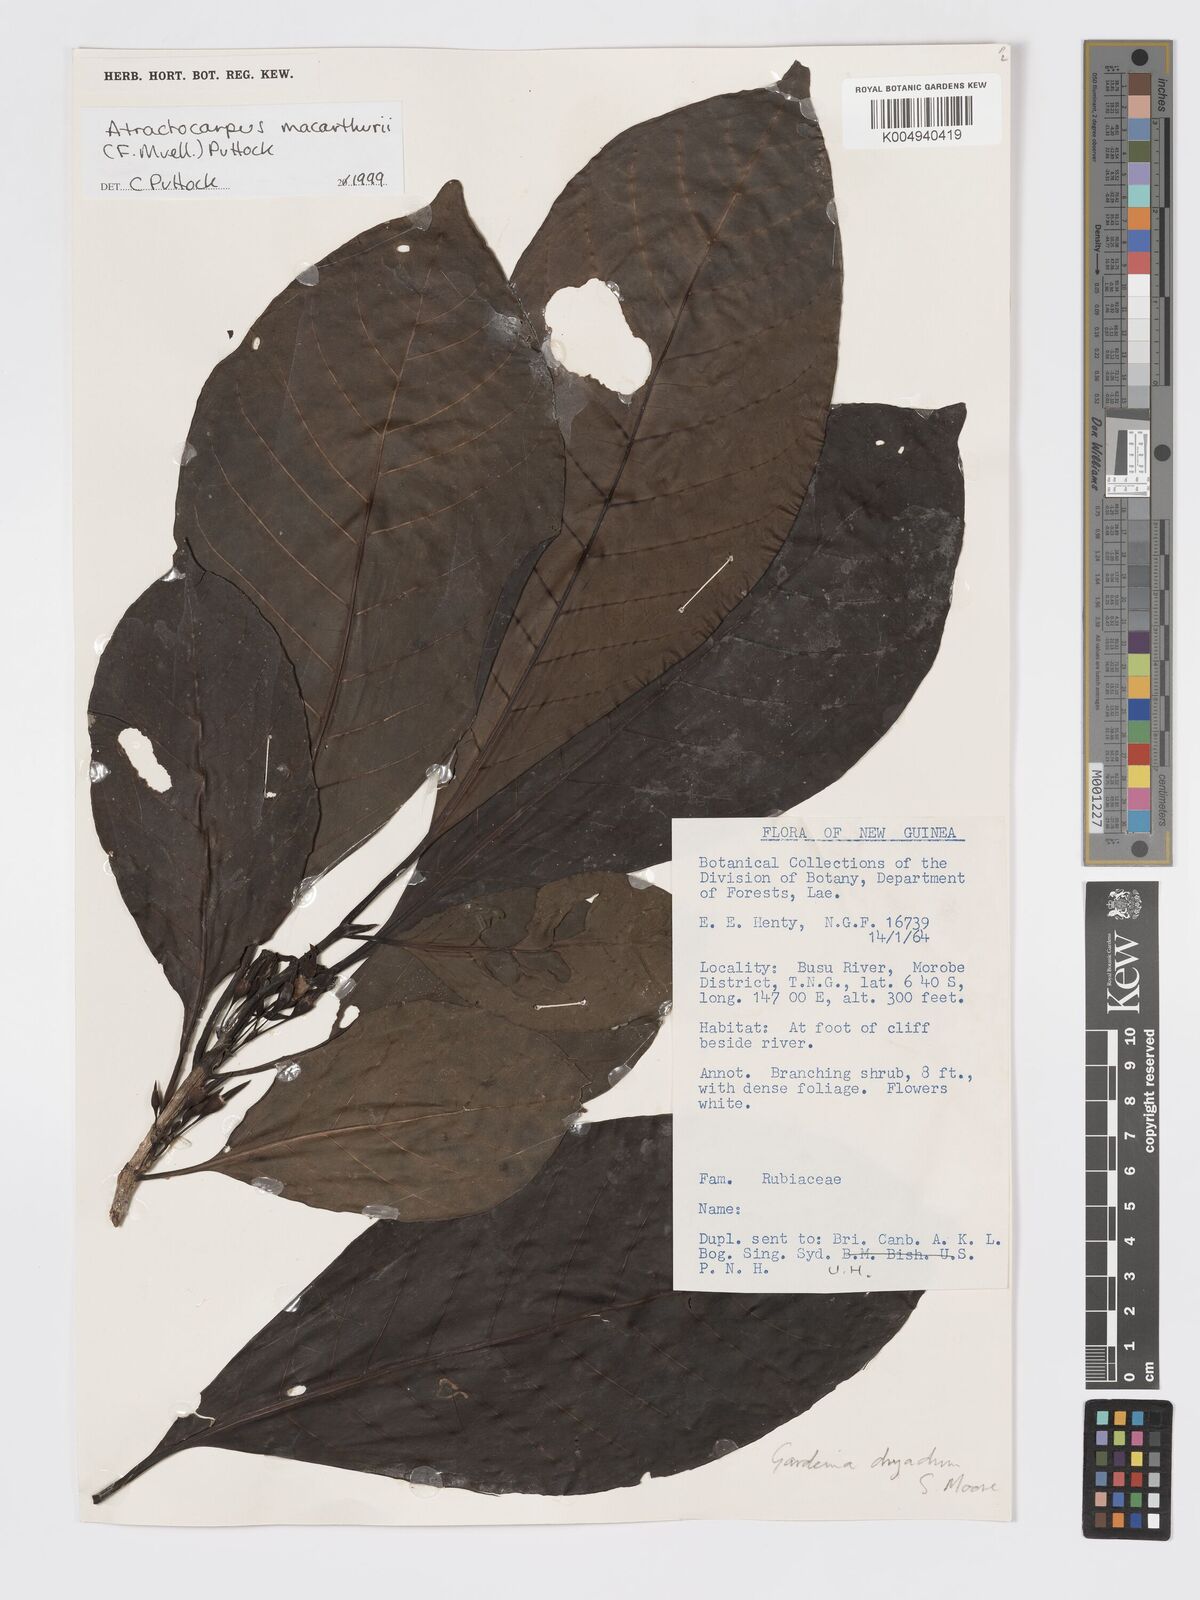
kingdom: Plantae
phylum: Tracheophyta
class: Magnoliopsida
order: Gentianales
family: Rubiaceae
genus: Atractocarpus
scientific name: Atractocarpus macarthurii
